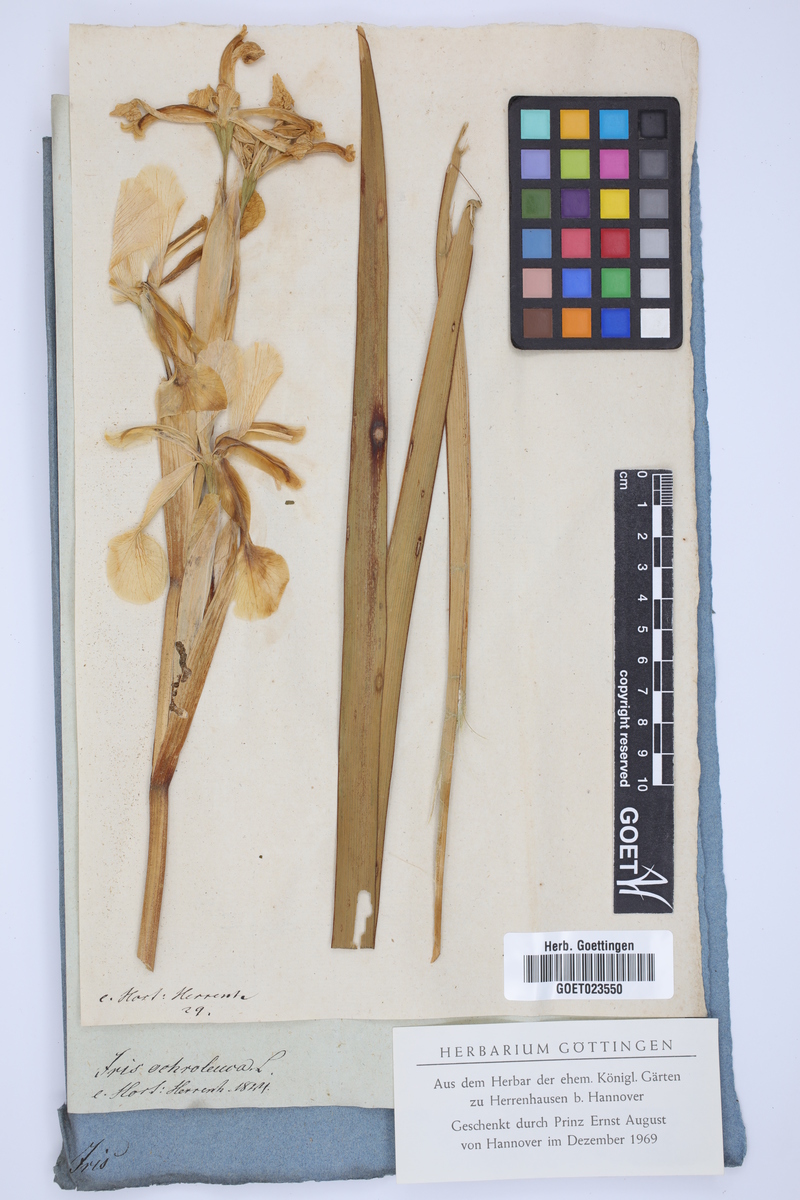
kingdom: Plantae
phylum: Tracheophyta
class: Liliopsida
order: Asparagales
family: Iridaceae
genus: Iris
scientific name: Iris orientalis
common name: Turkish iris
